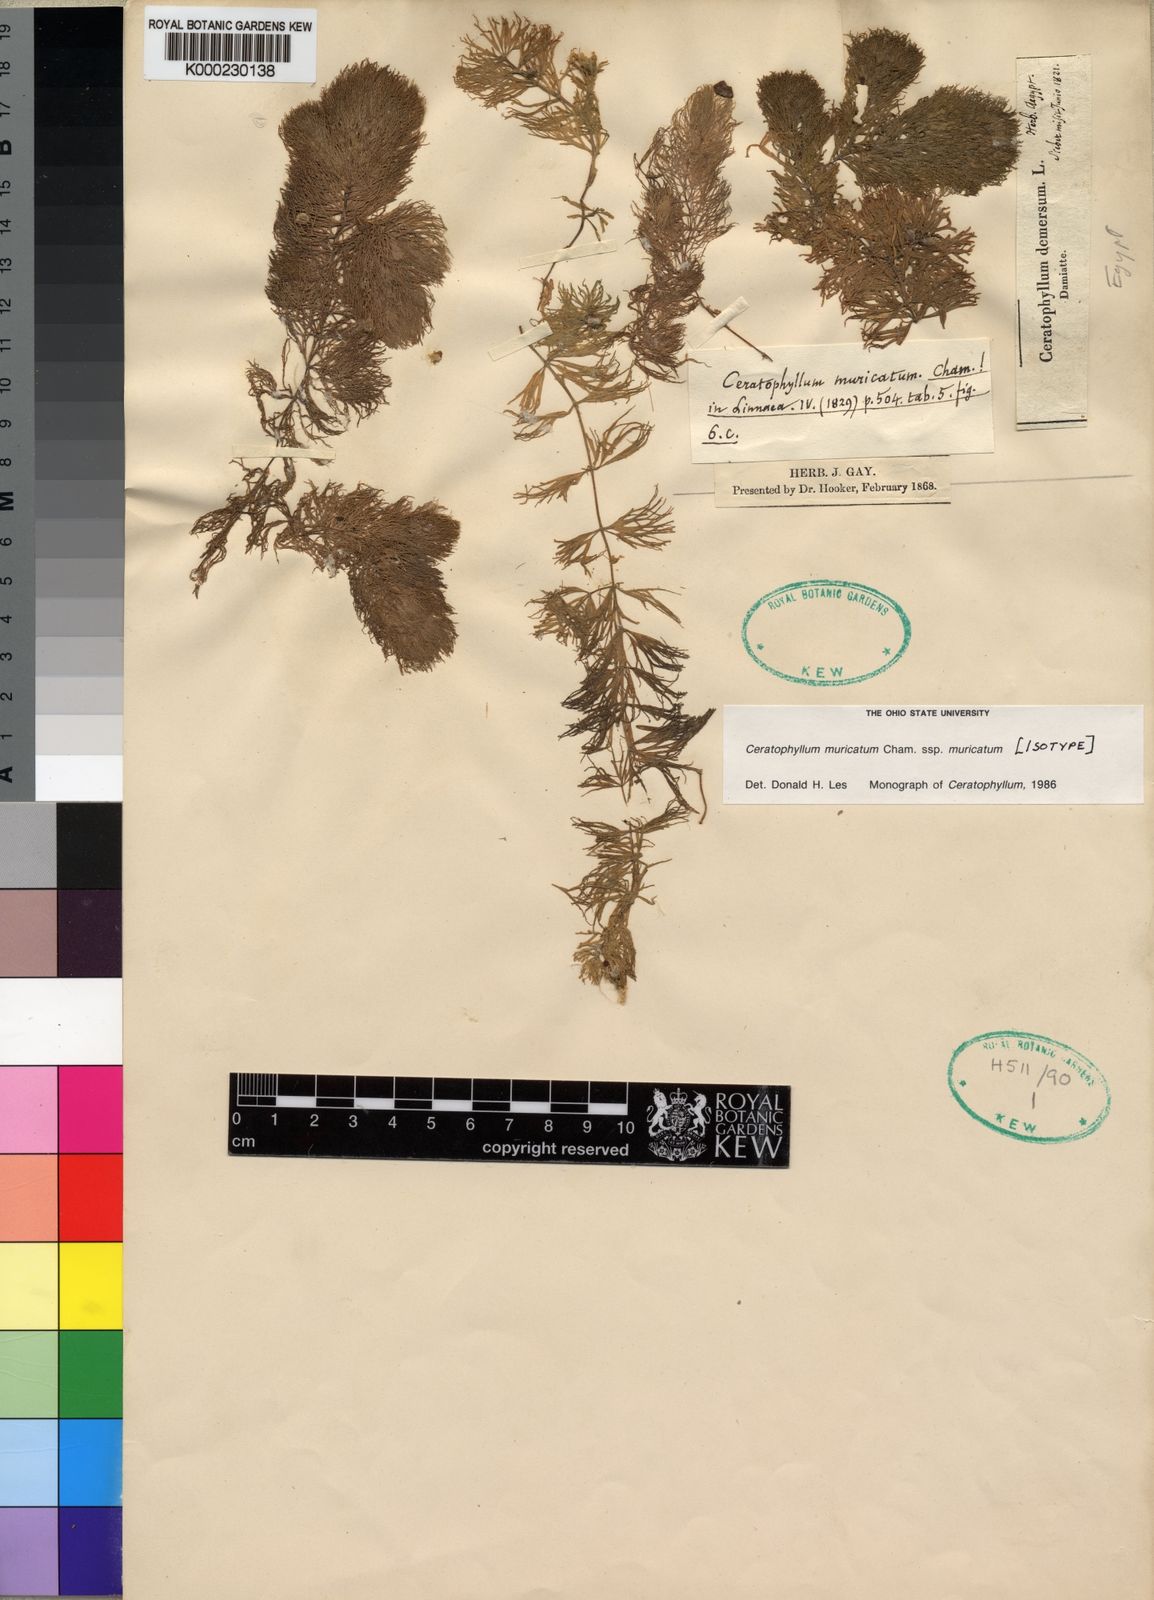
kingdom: Plantae
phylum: Tracheophyta
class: Magnoliopsida
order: Ceratophyllales
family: Ceratophyllaceae
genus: Ceratophyllum
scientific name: Ceratophyllum muricatum
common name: Prickly hornwort
